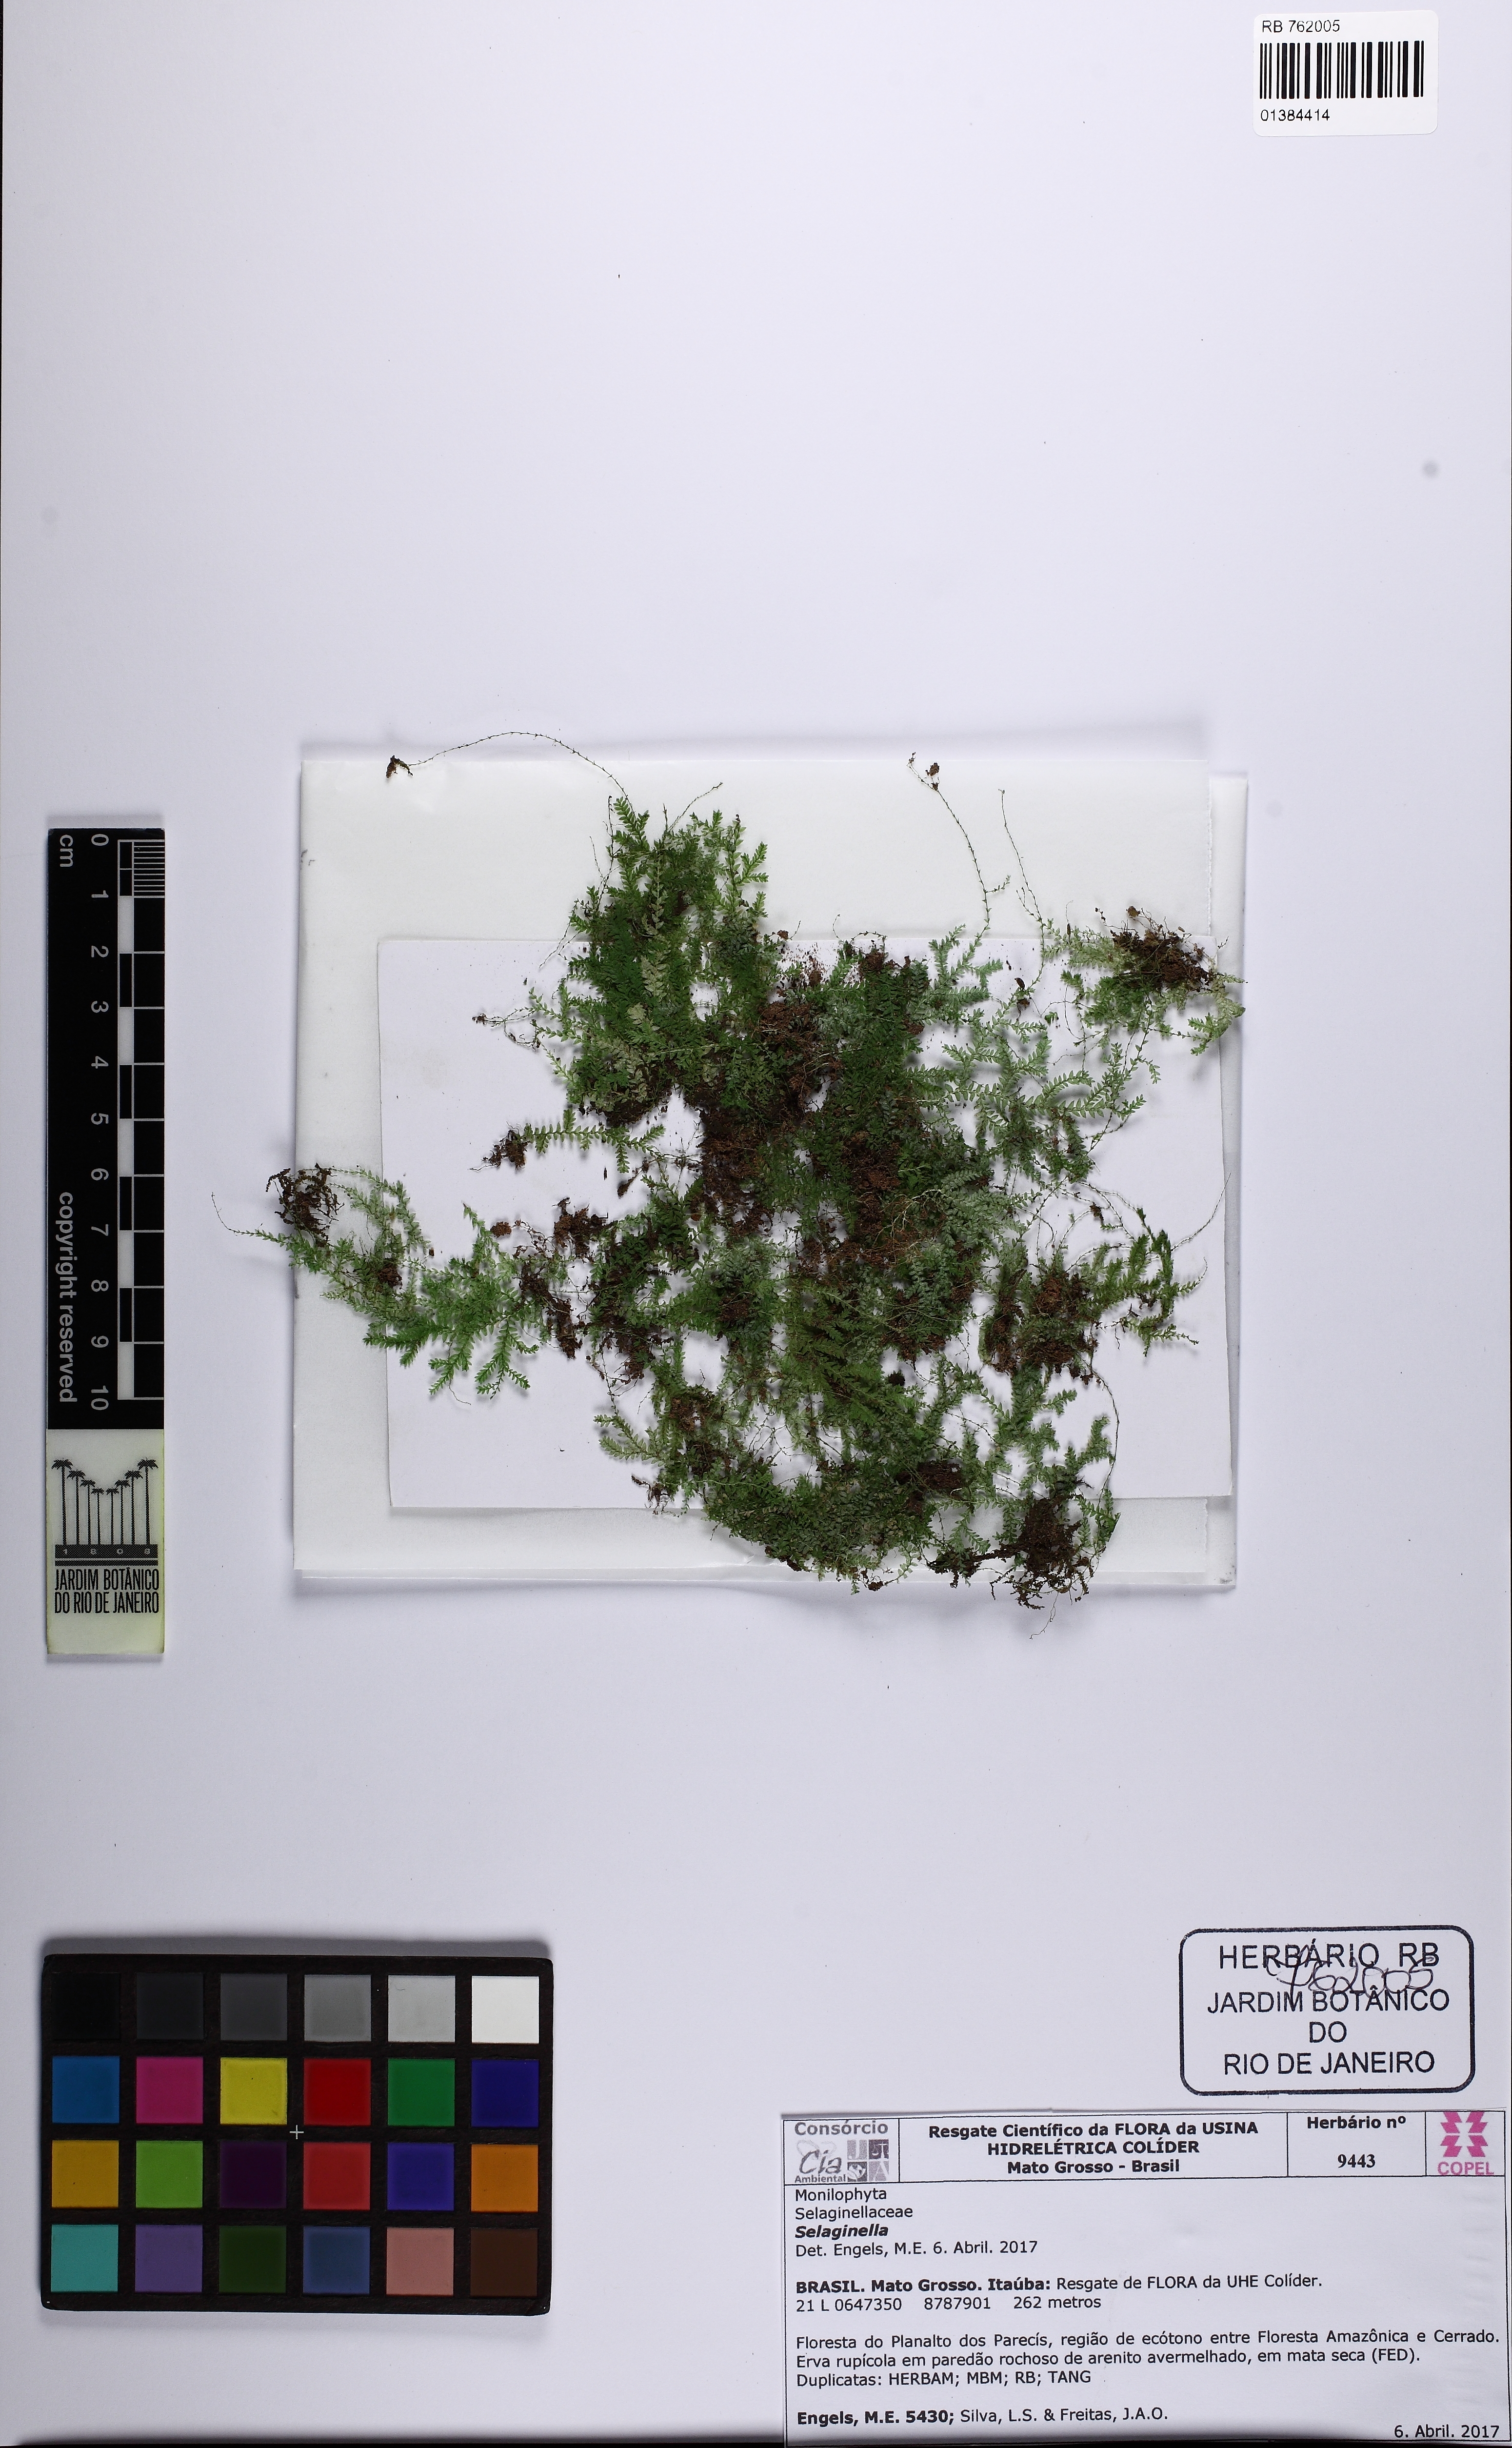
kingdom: Plantae
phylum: Tracheophyta
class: Lycopodiopsida
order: Selaginellales
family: Selaginellaceae
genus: Selaginella
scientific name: Selaginella
